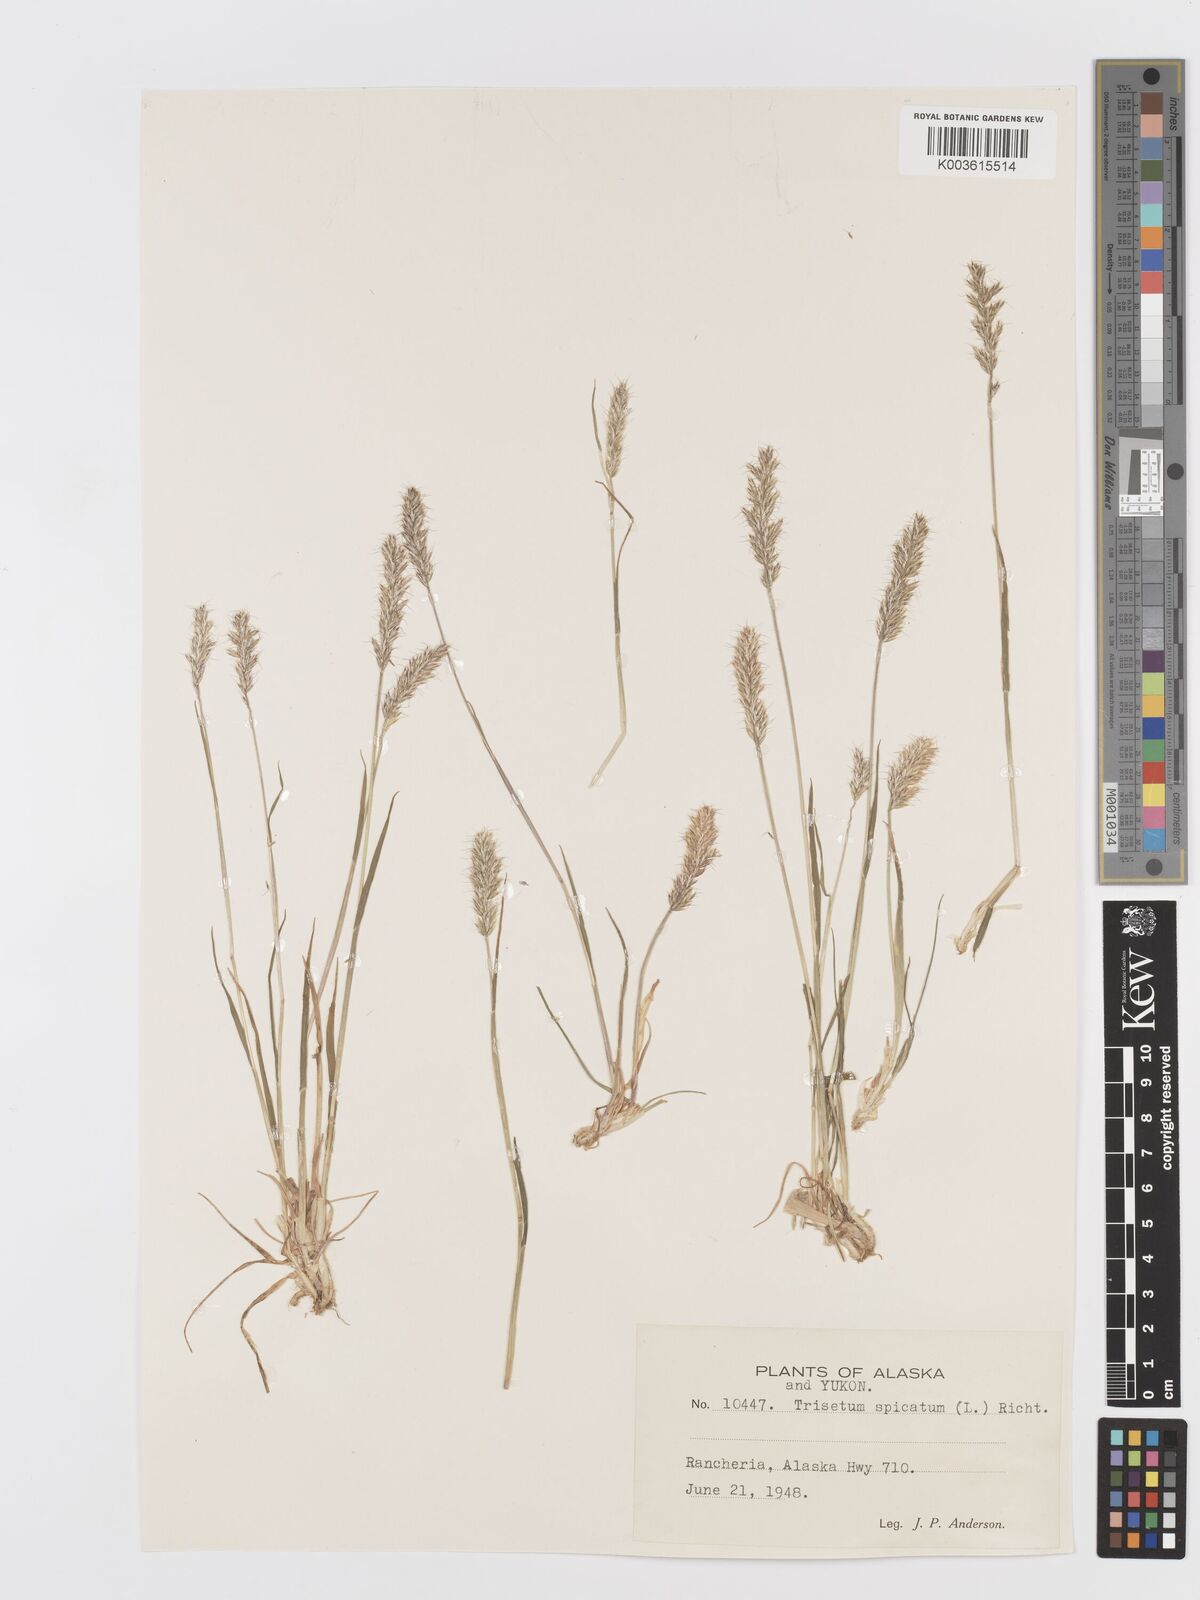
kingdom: Plantae
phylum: Tracheophyta
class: Liliopsida
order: Poales
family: Poaceae
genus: Koeleria
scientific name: Koeleria spicata
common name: Mountain trisetum
